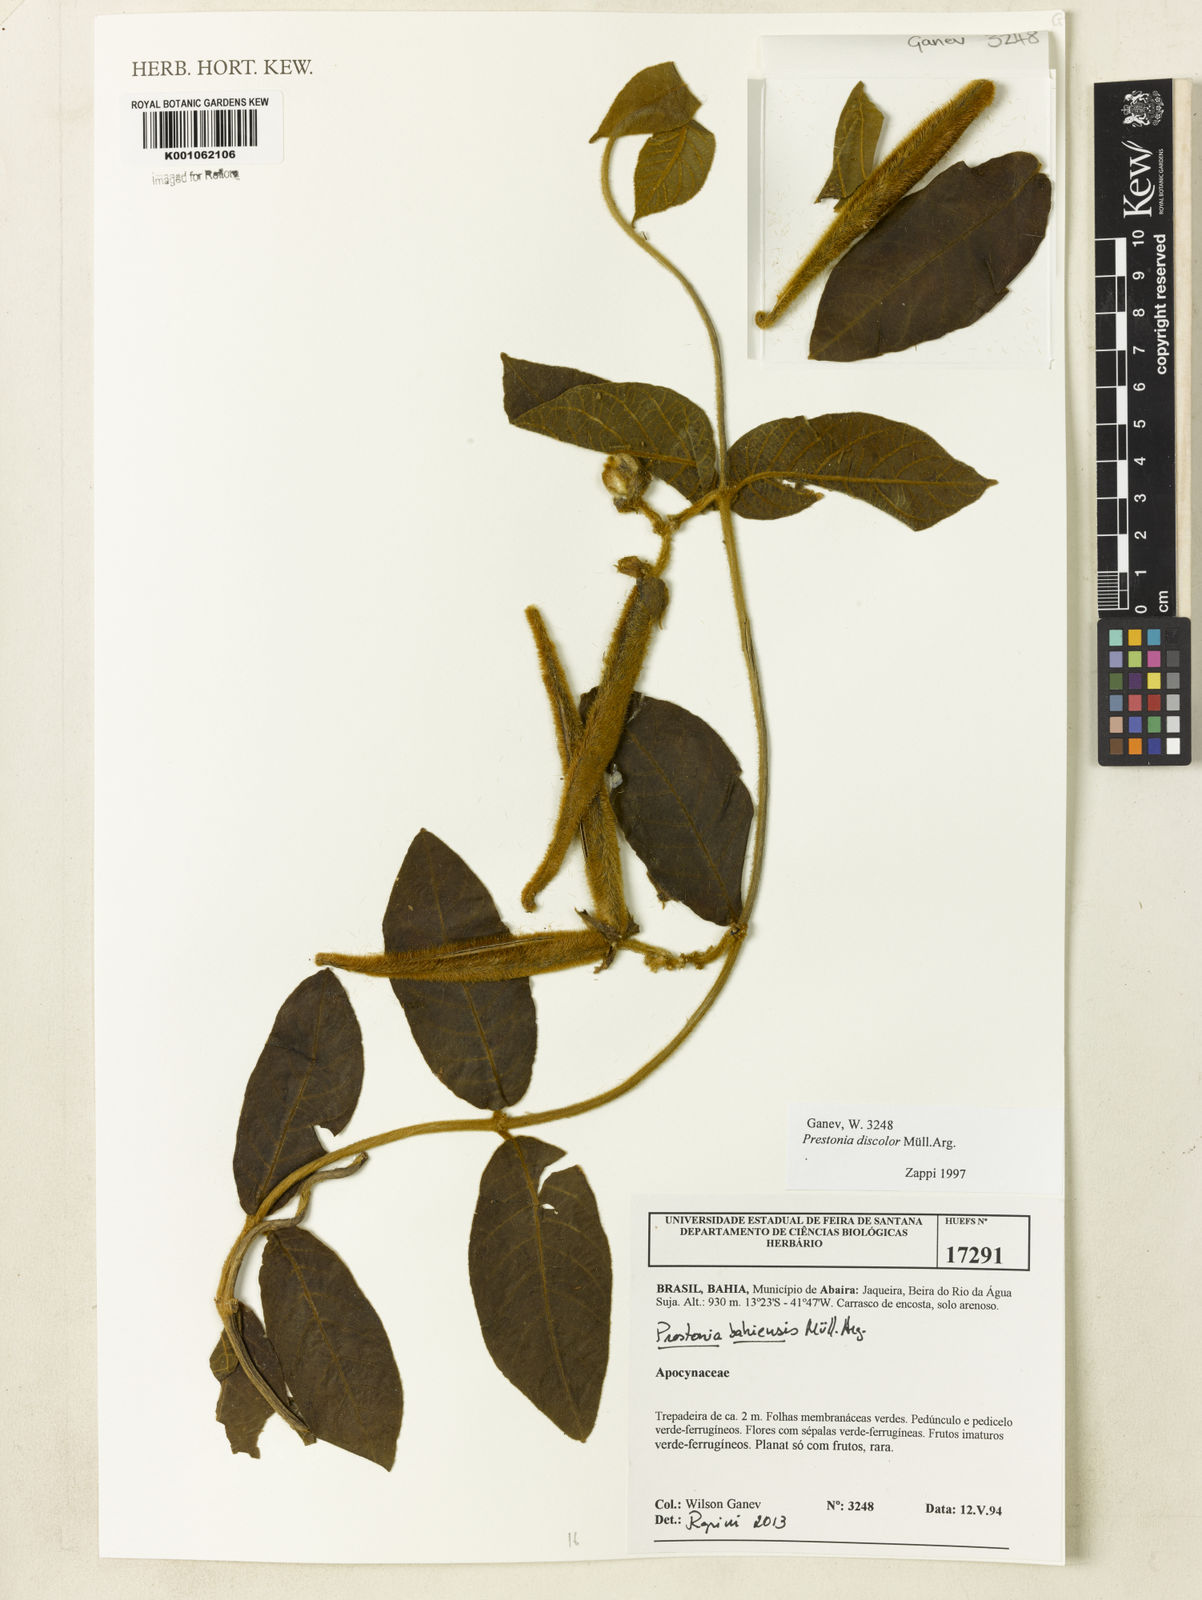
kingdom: Plantae
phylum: Tracheophyta
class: Magnoliopsida
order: Gentianales
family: Apocynaceae
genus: Prestonia
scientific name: Prestonia
